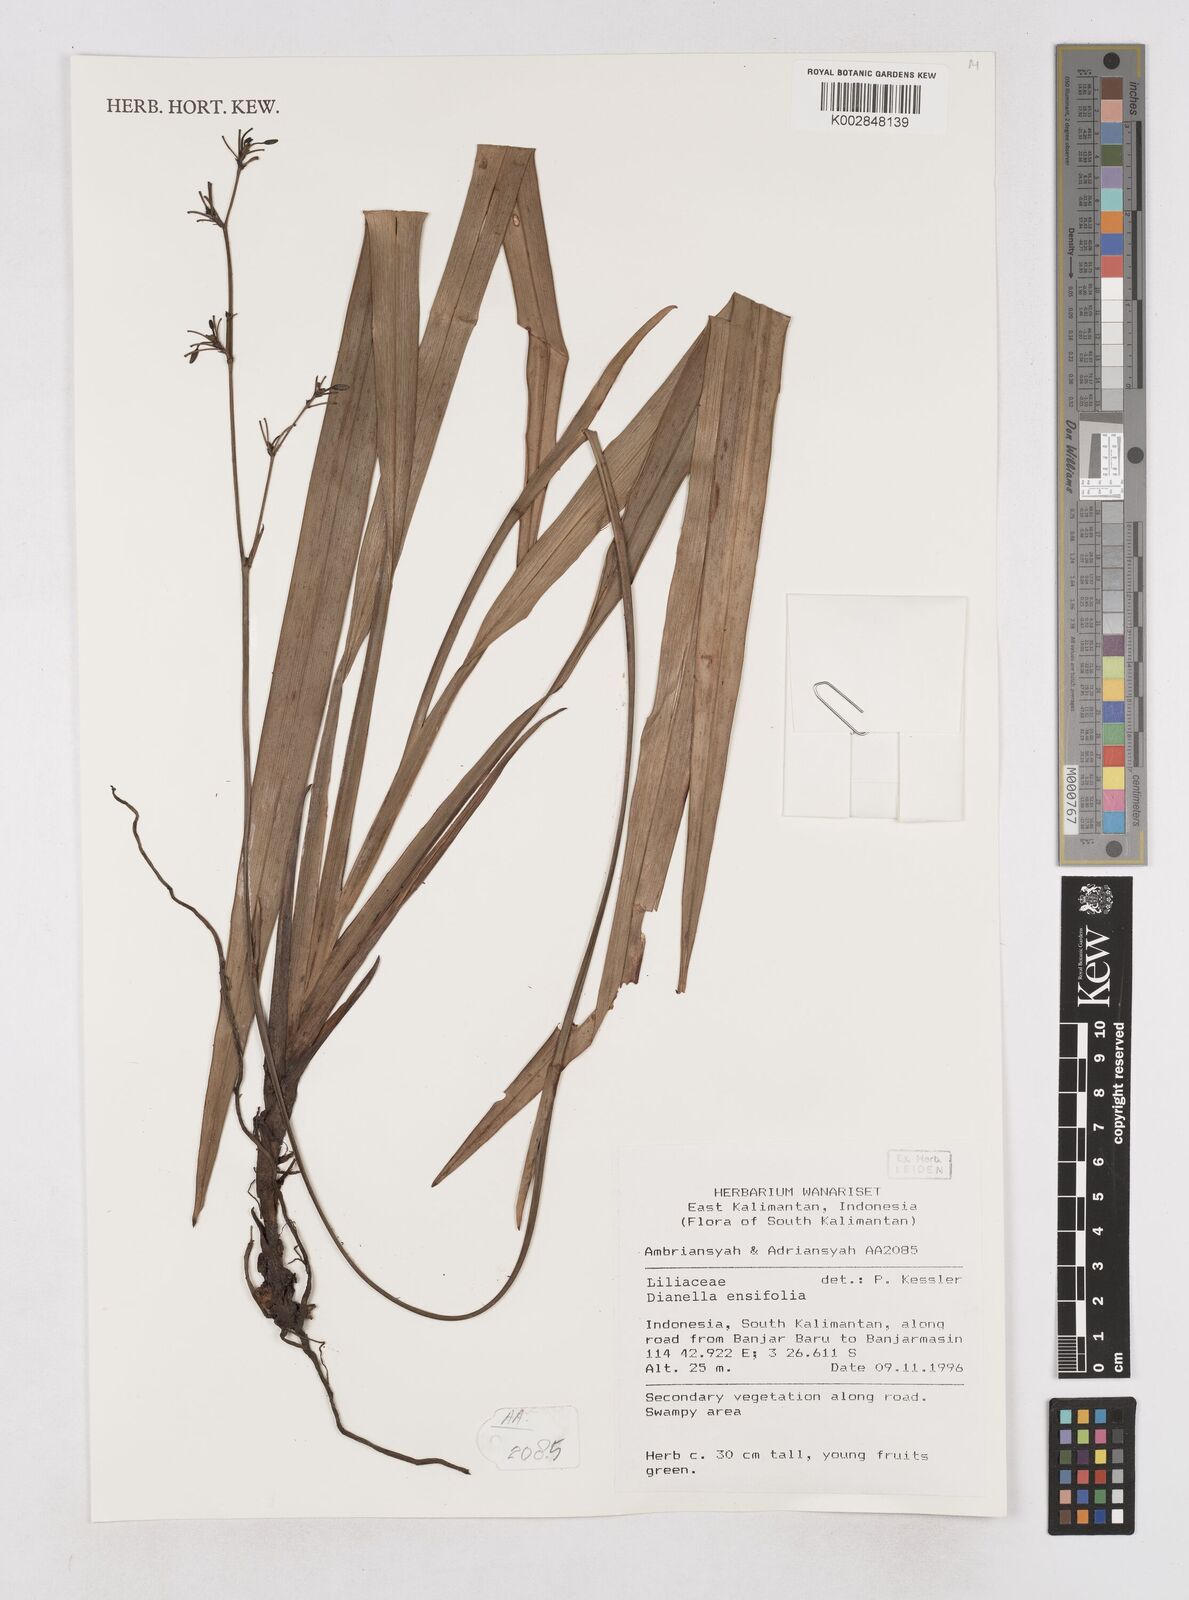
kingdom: Plantae
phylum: Tracheophyta
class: Liliopsida
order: Asparagales
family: Asphodelaceae
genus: Dianella
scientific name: Dianella ensifolia
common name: New zealand lilyplant
